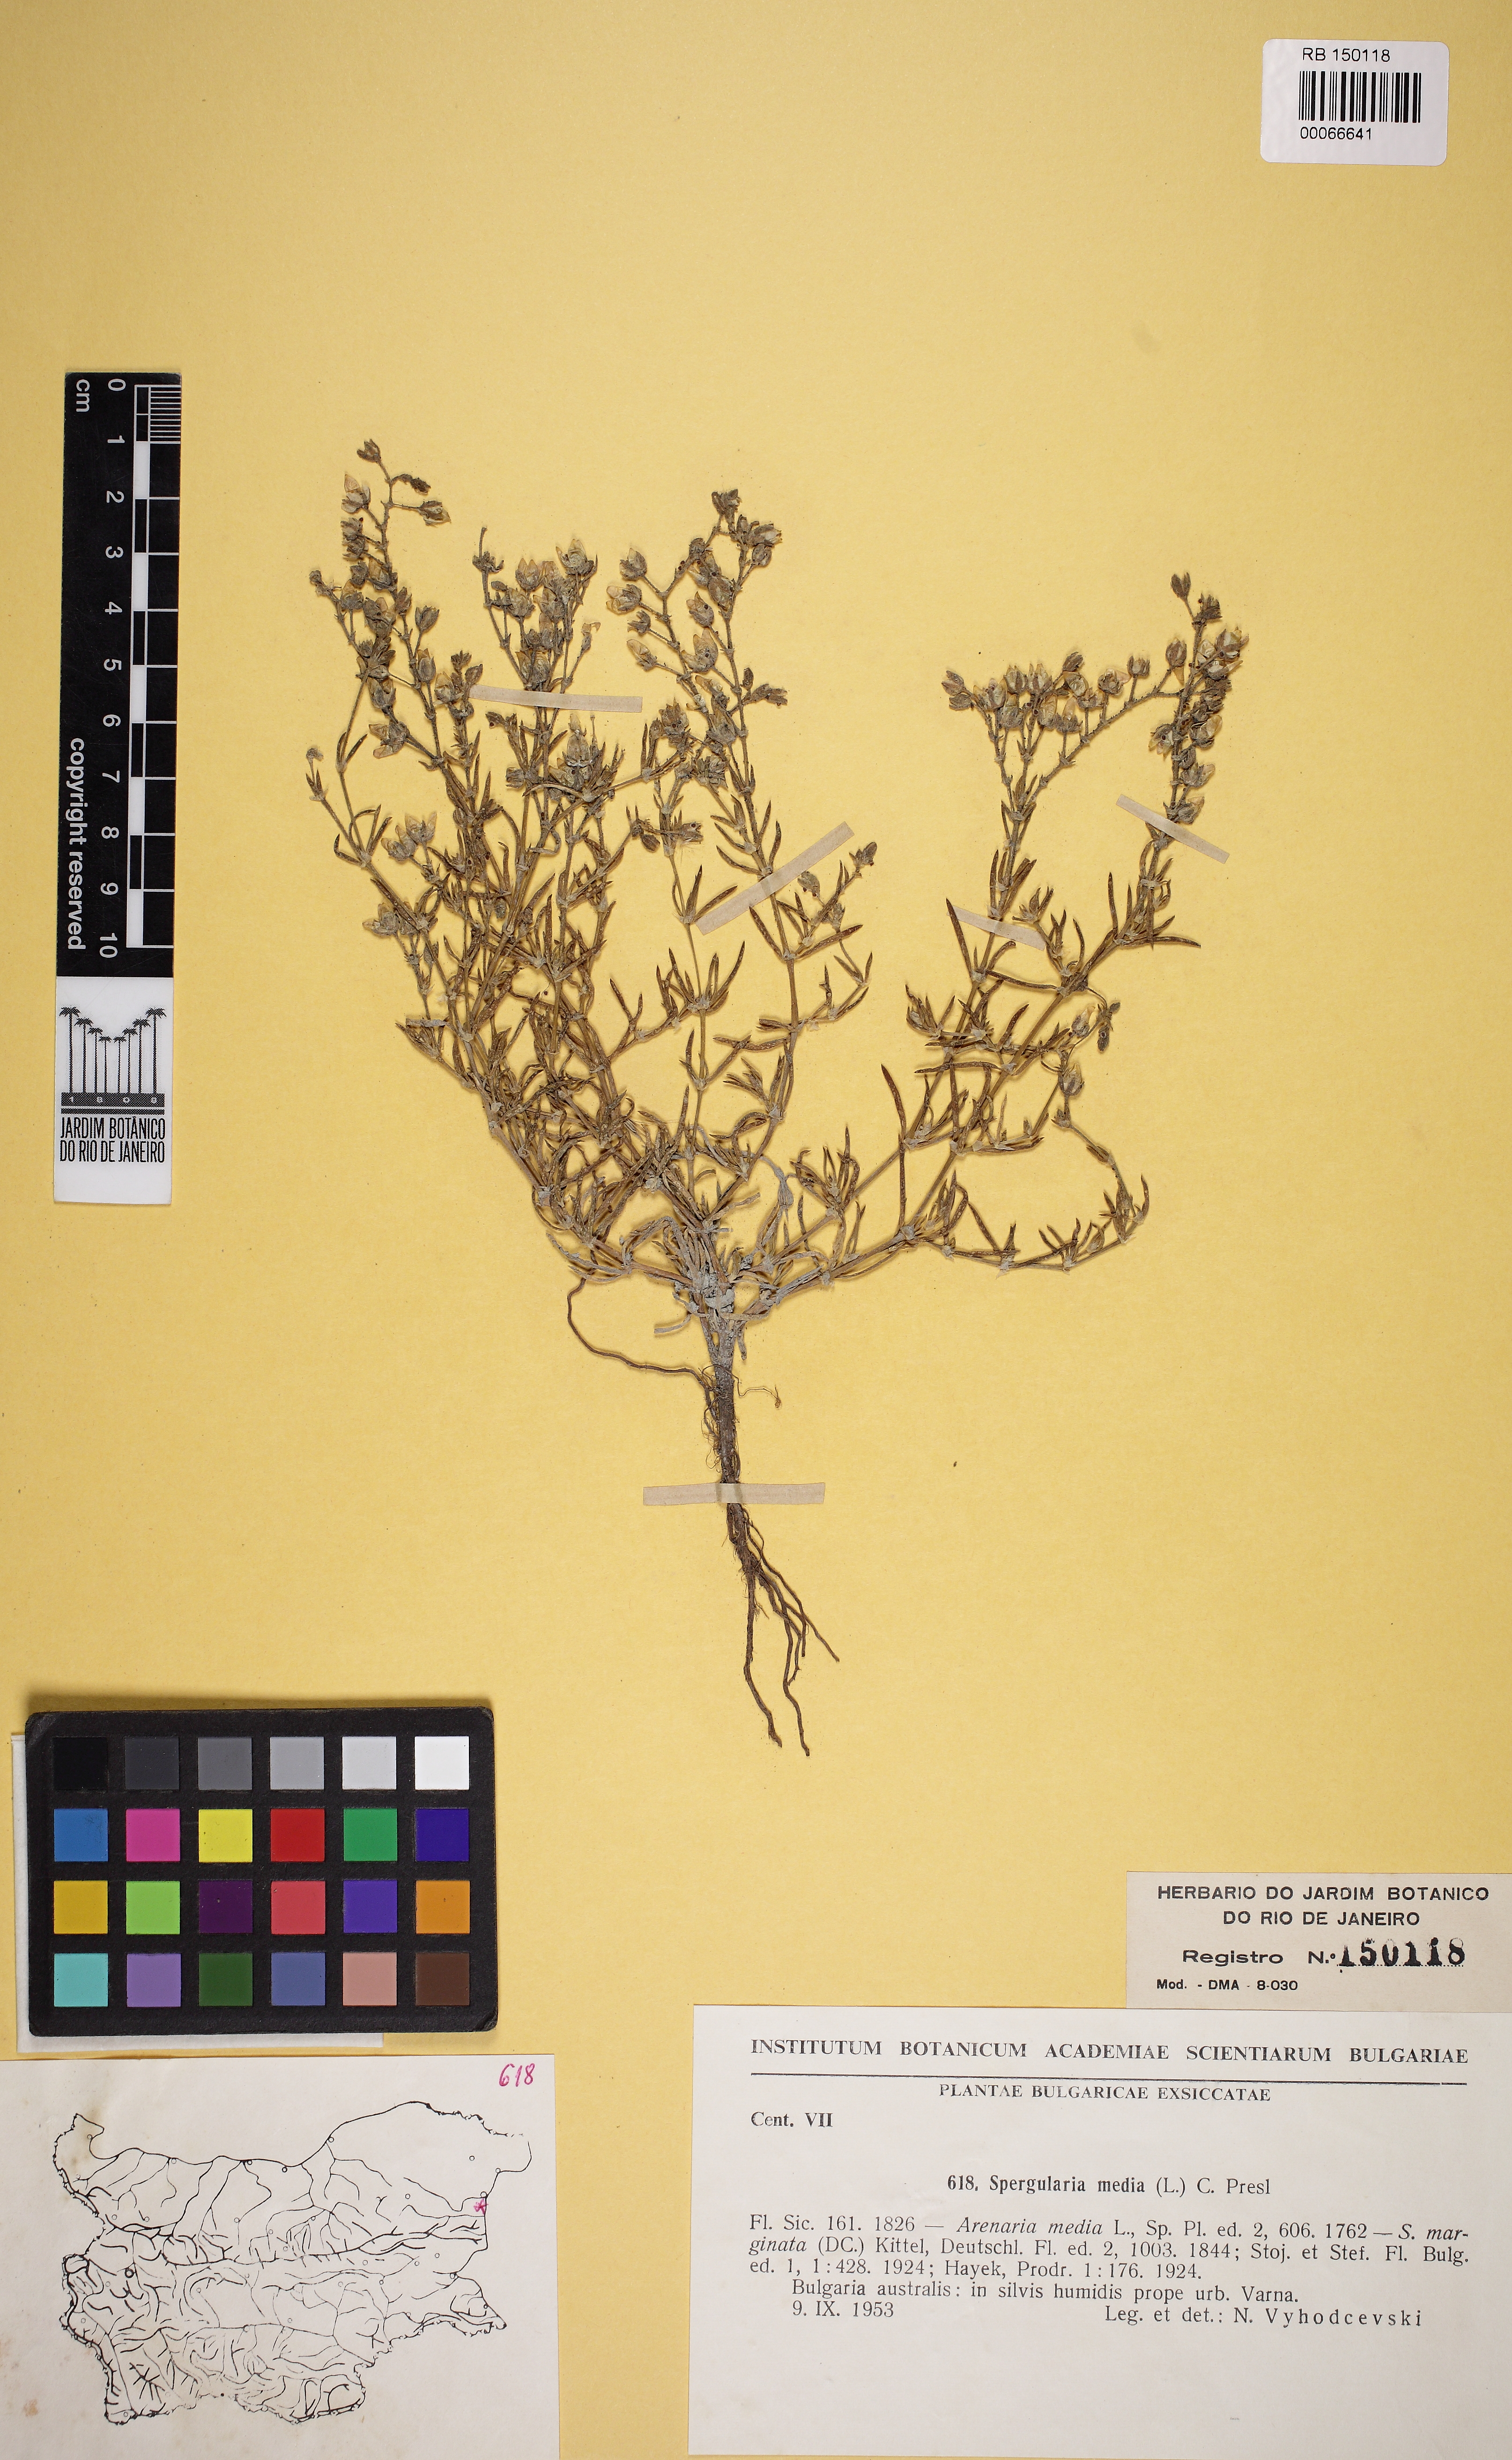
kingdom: Plantae
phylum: Tracheophyta
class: Magnoliopsida
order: Caryophyllales
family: Caryophyllaceae
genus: Spergularia
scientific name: Spergularia media
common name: Greater sea-spurrey
